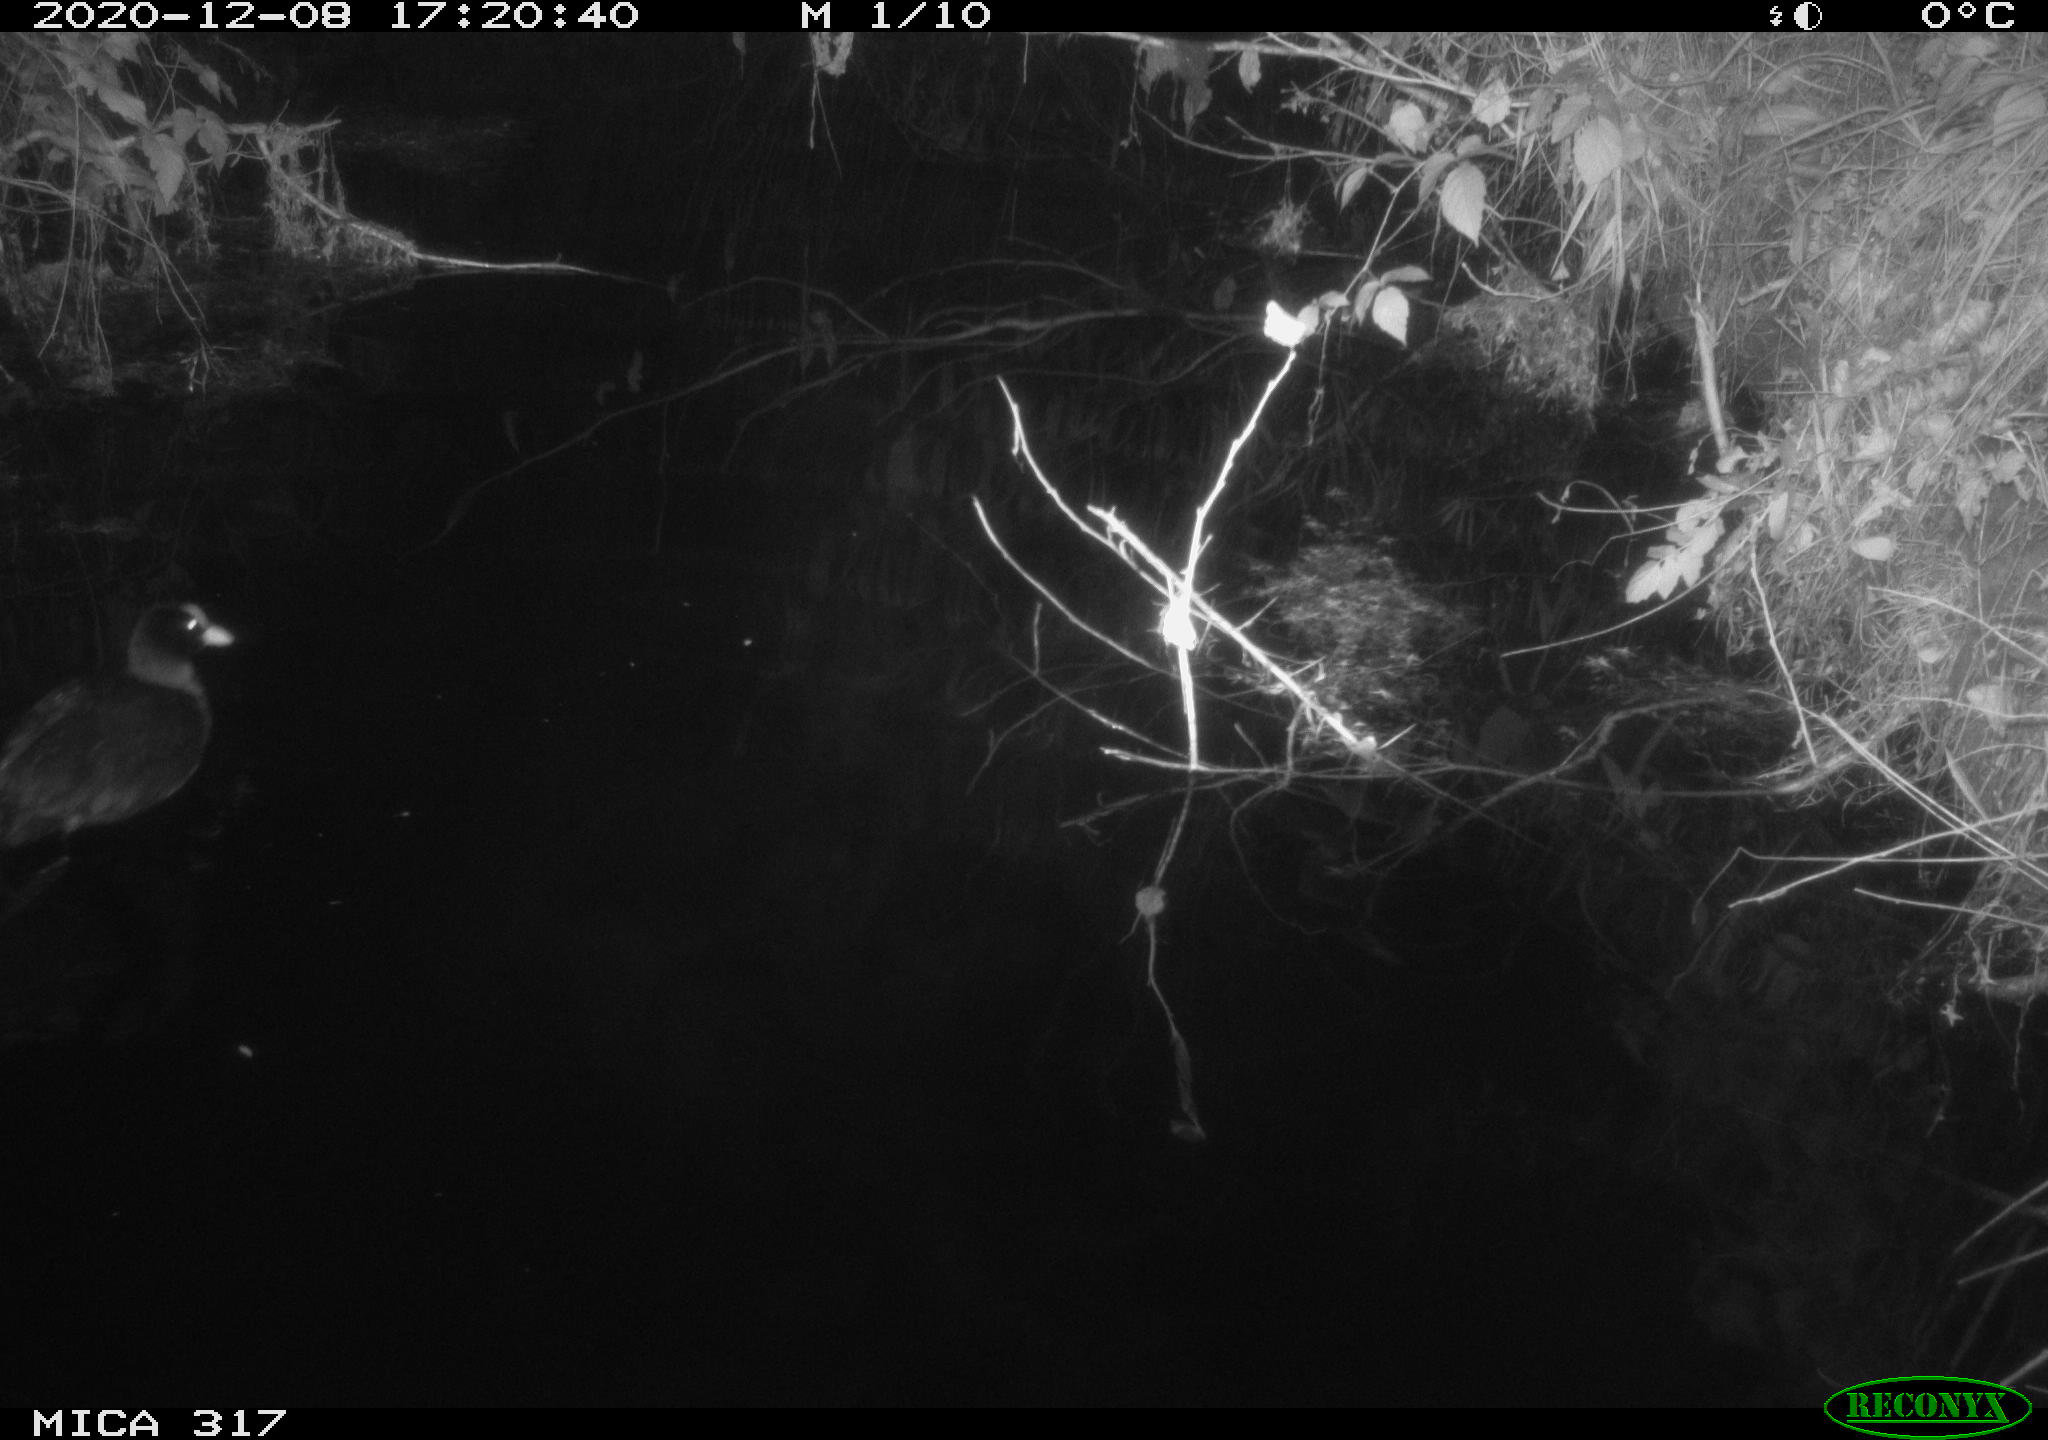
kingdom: Animalia
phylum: Chordata
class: Aves
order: Gruiformes
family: Rallidae
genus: Fulica
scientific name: Fulica atra
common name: Eurasian coot
